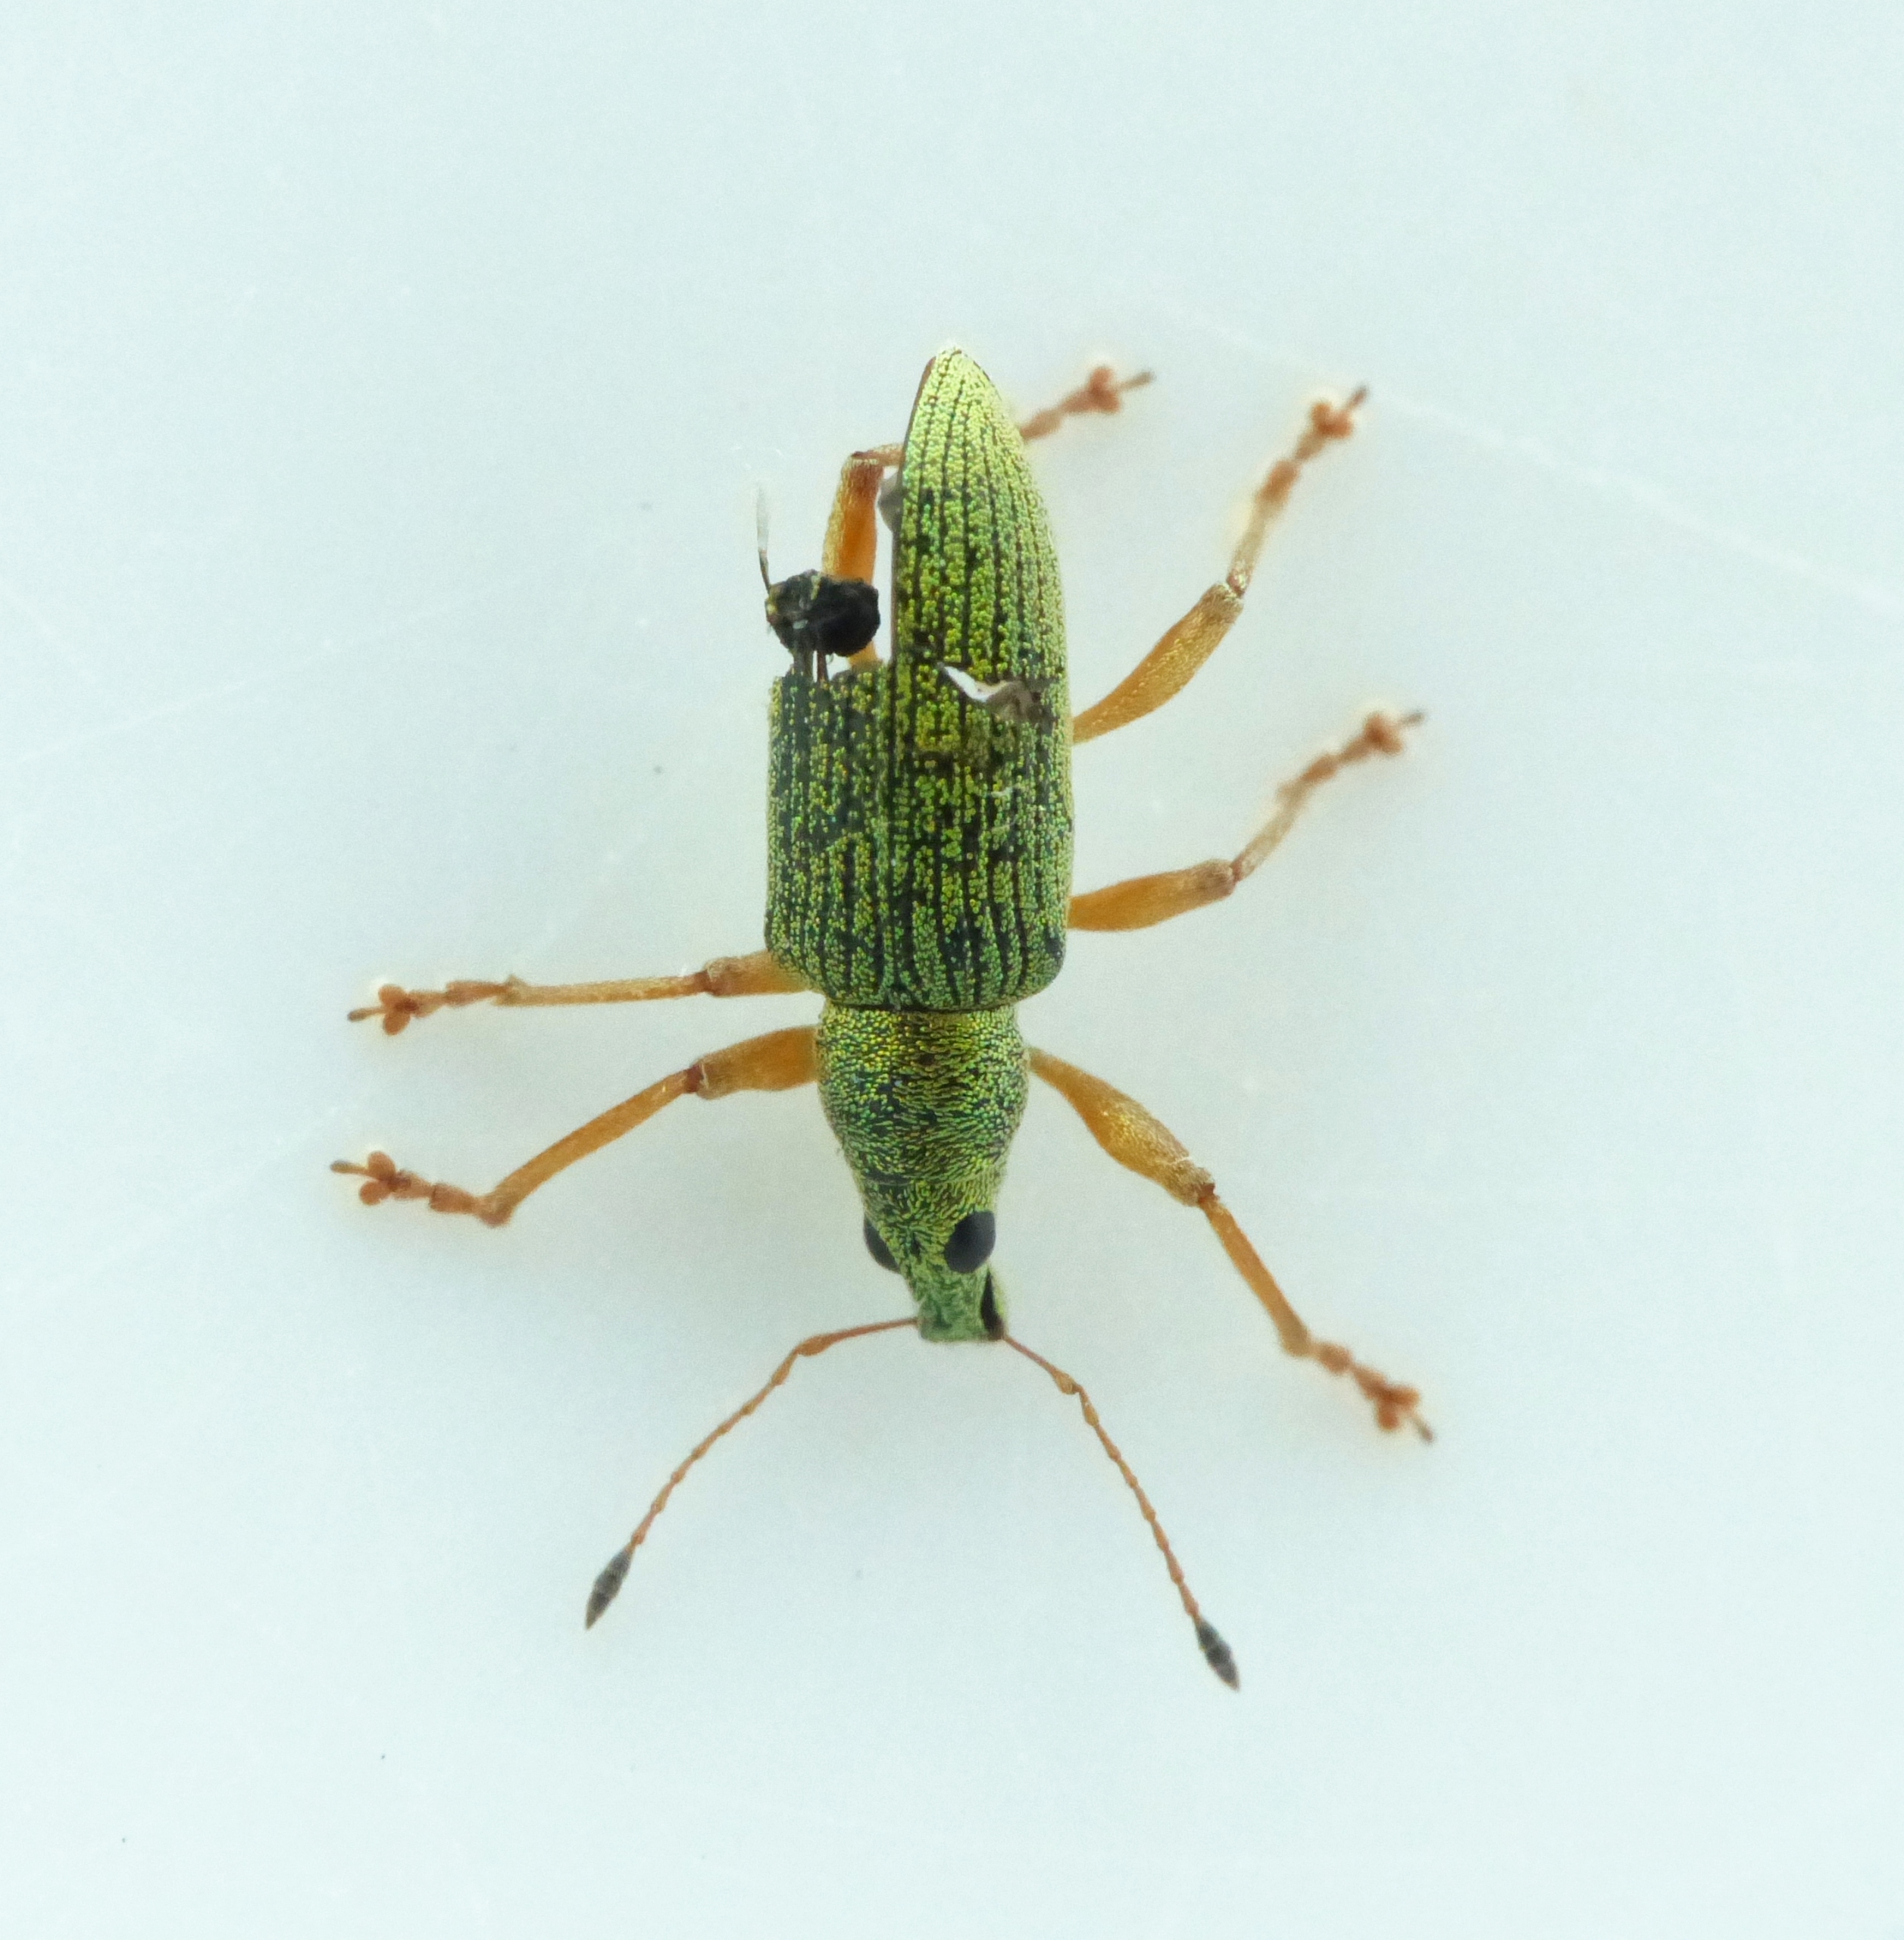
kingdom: Animalia
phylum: Arthropoda
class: Insecta
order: Coleoptera
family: Curculionidae
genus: Polydrusus
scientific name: Polydrusus formosus
